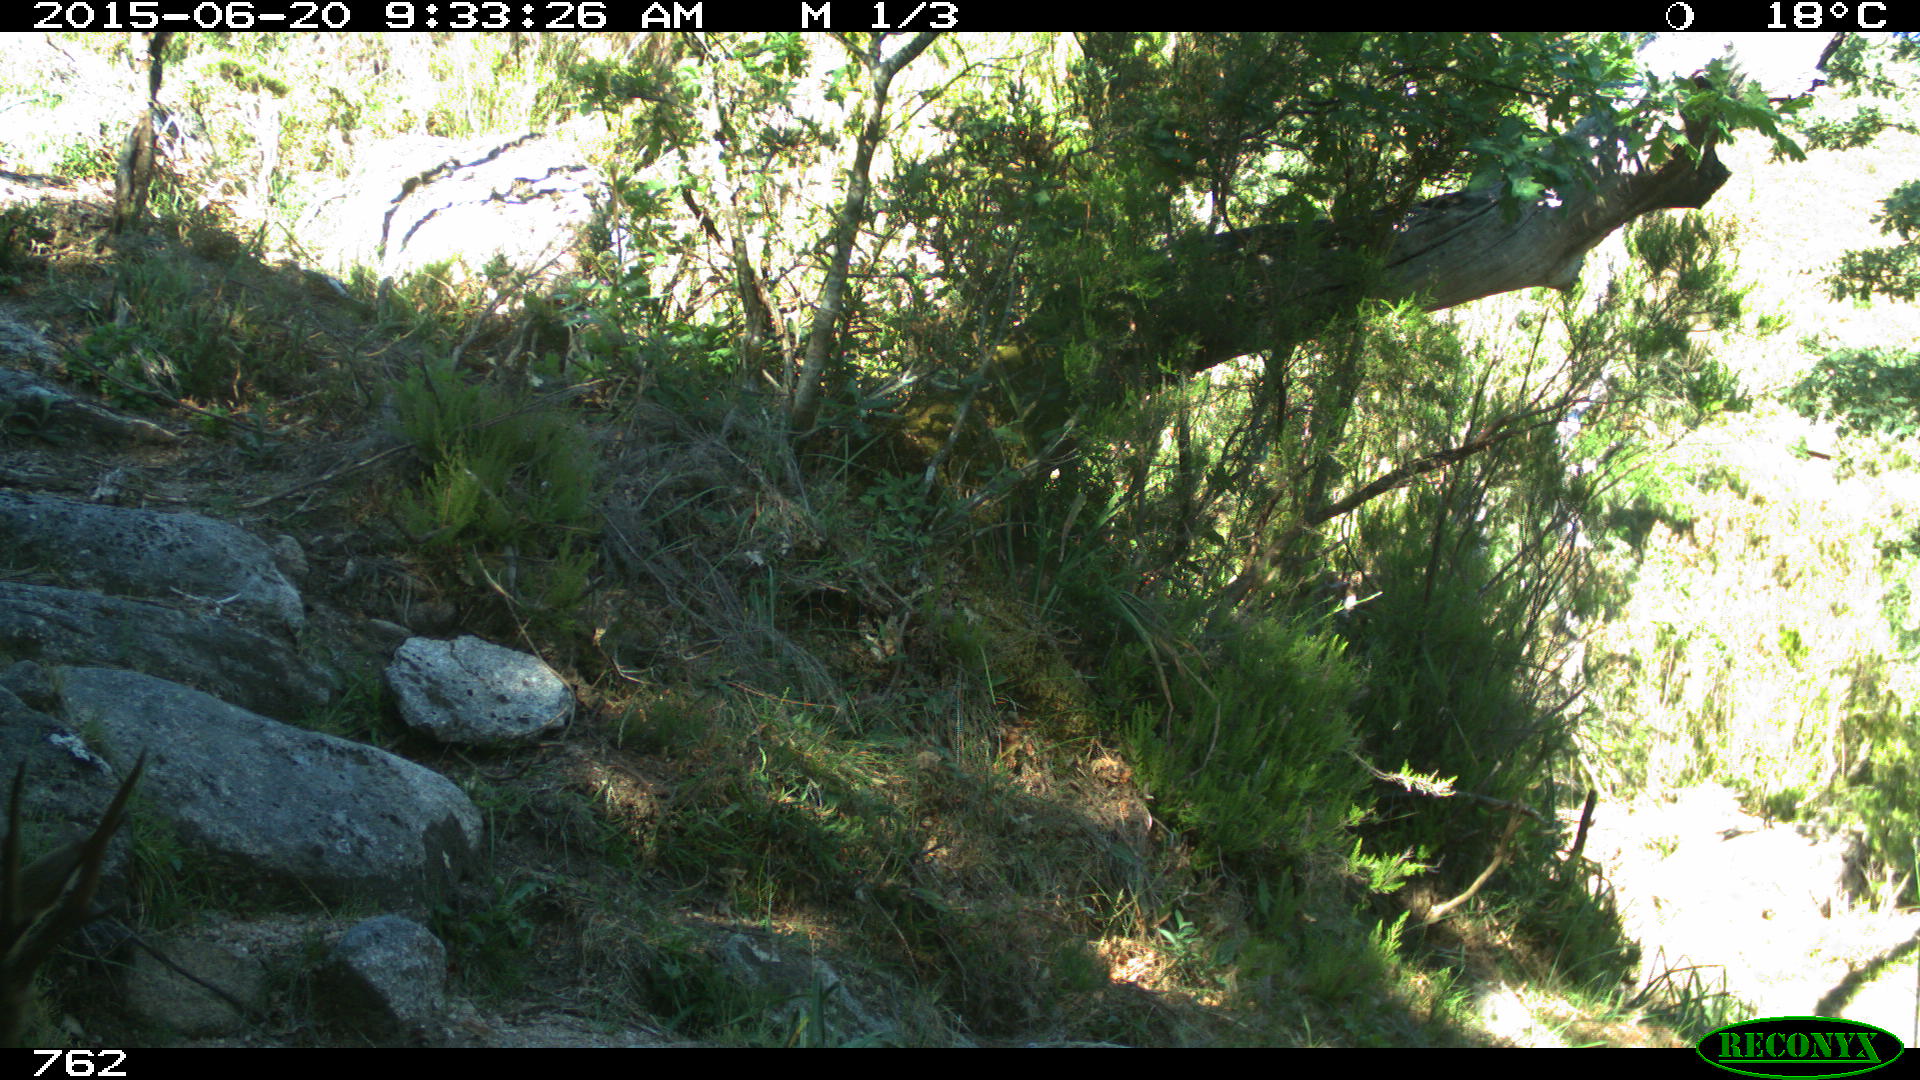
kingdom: Animalia
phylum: Chordata
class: Mammalia
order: Artiodactyla
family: Cervidae
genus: Capreolus
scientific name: Capreolus capreolus
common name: Western roe deer
